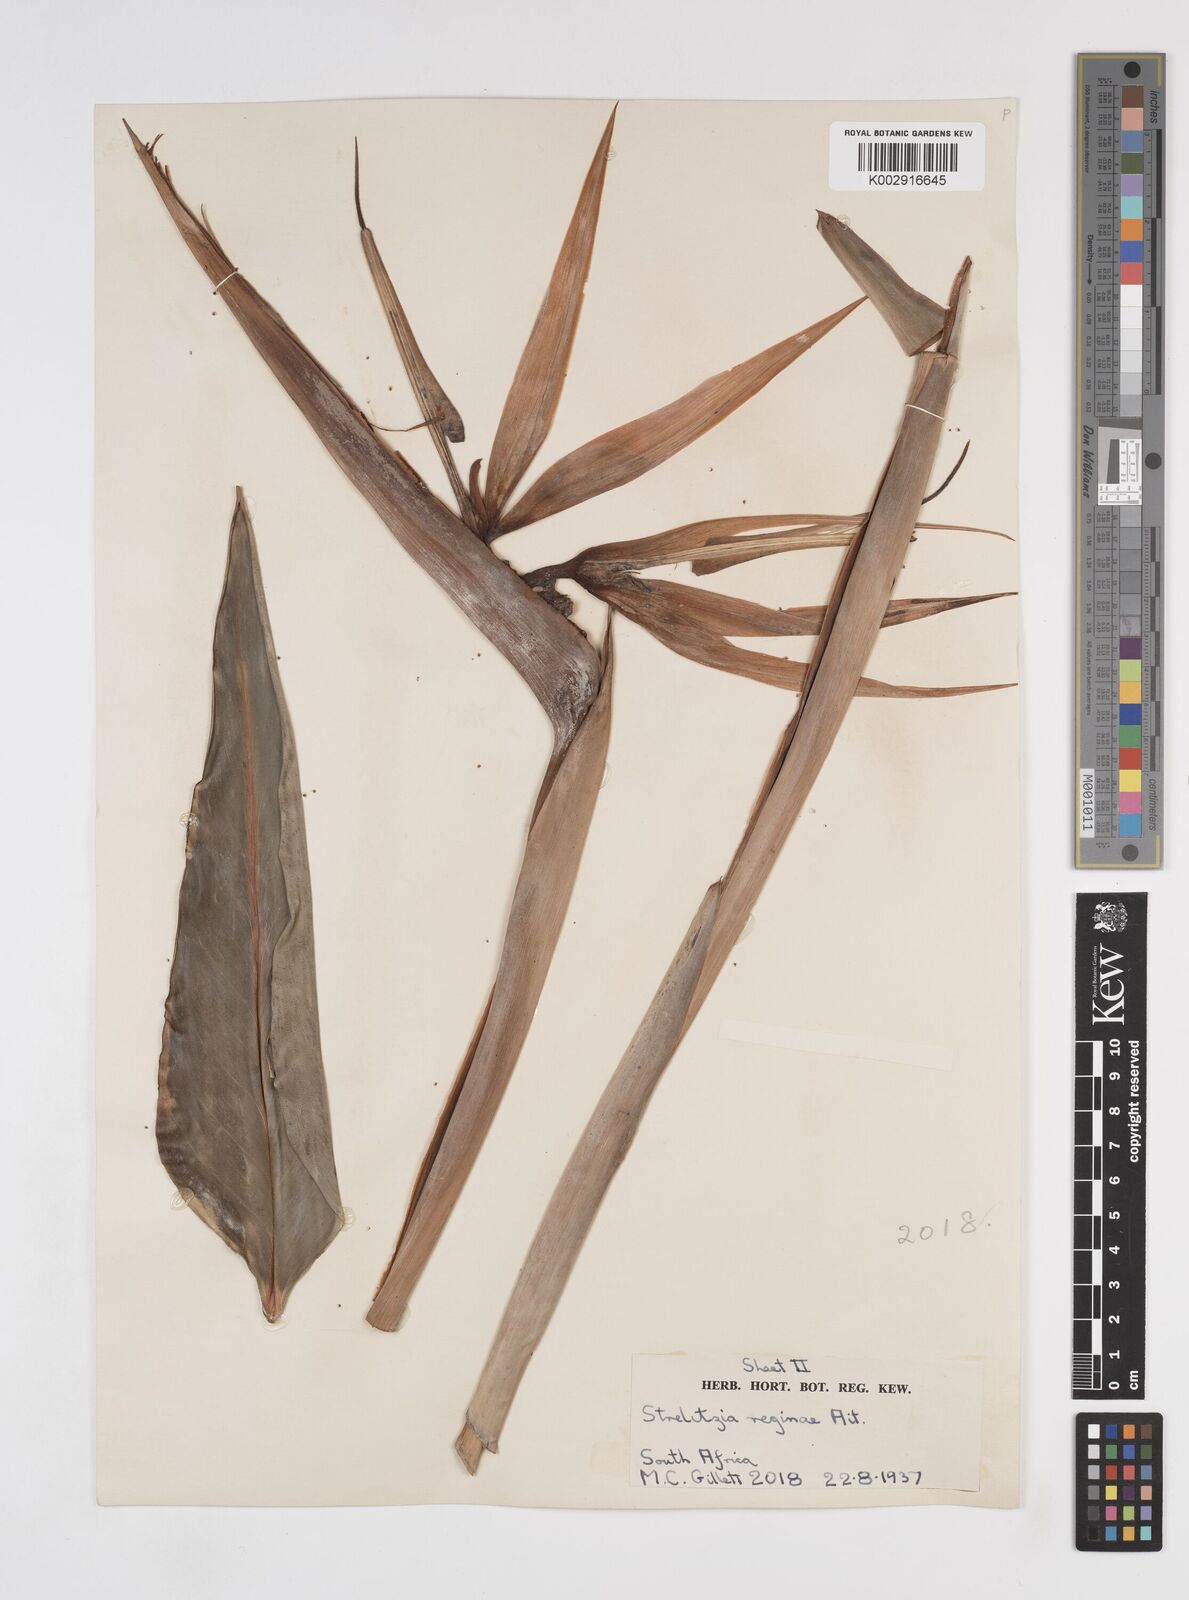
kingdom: Plantae
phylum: Tracheophyta
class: Liliopsida
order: Zingiberales
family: Strelitziaceae
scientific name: Strelitziaceae
